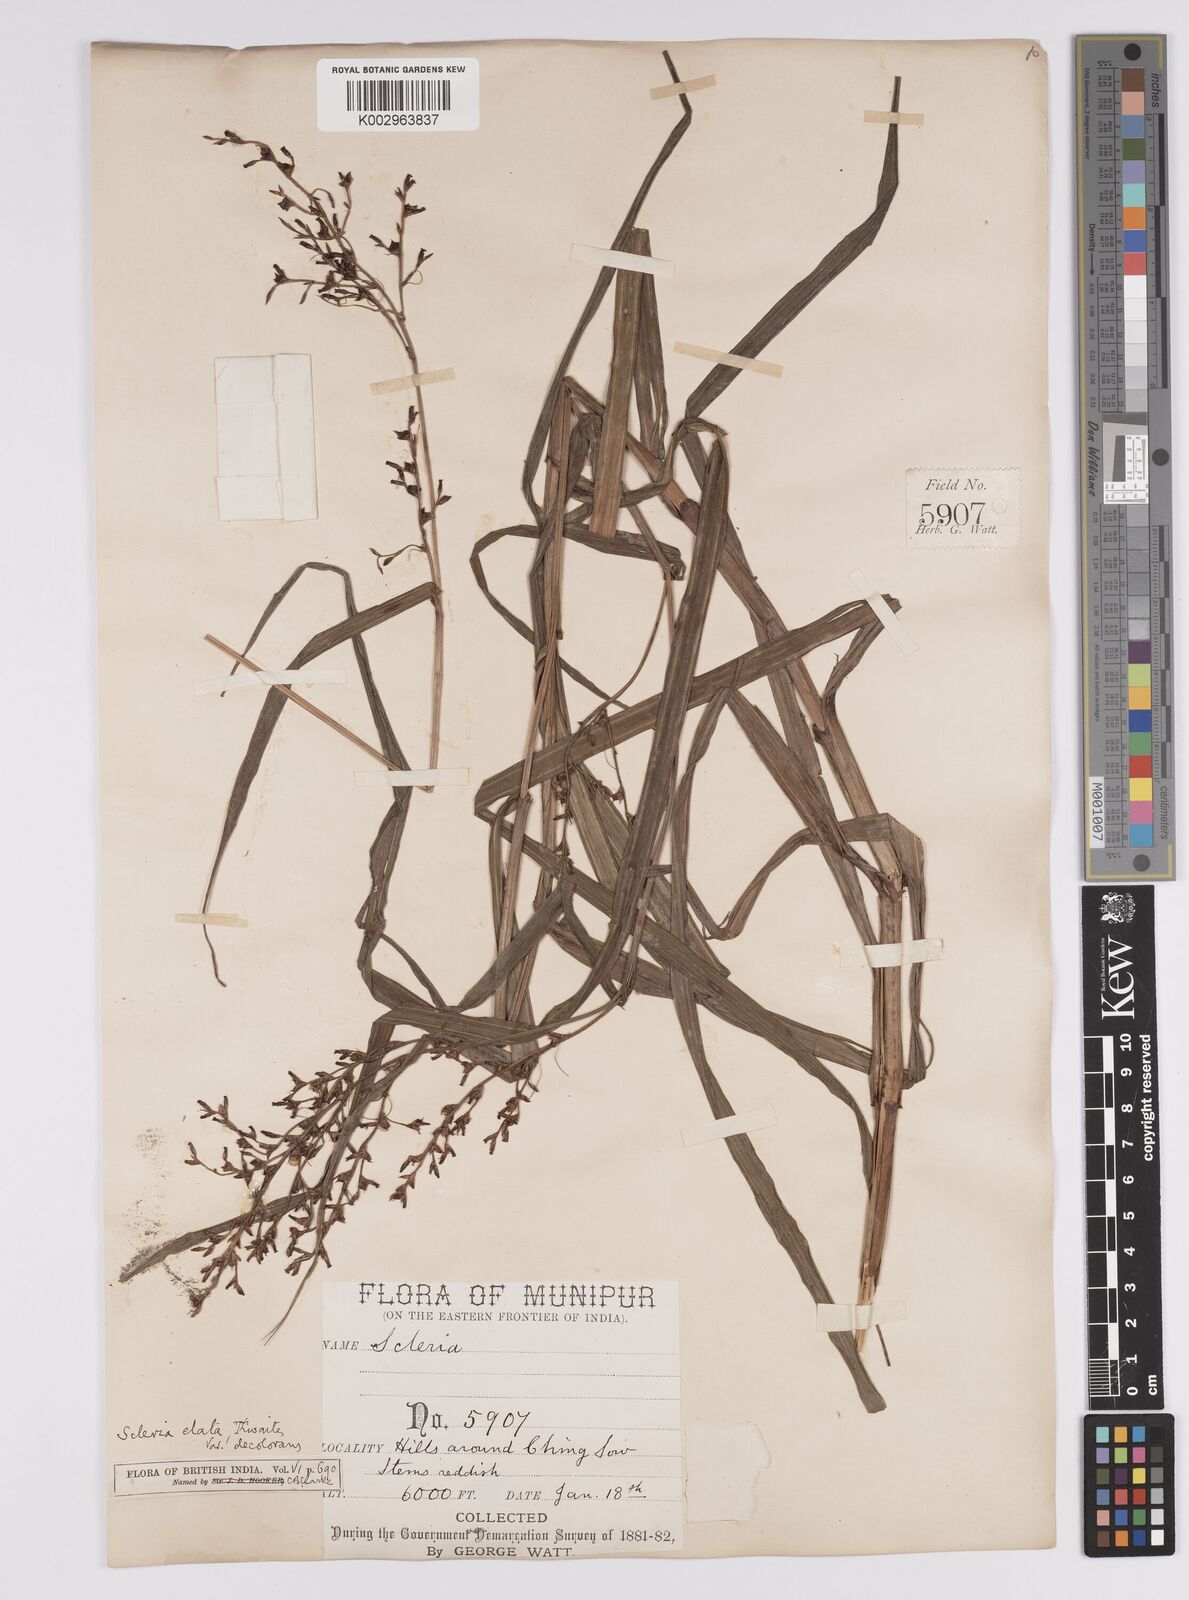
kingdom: Plantae
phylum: Tracheophyta
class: Liliopsida
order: Poales
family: Cyperaceae
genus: Scleria
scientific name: Scleria terrestris
